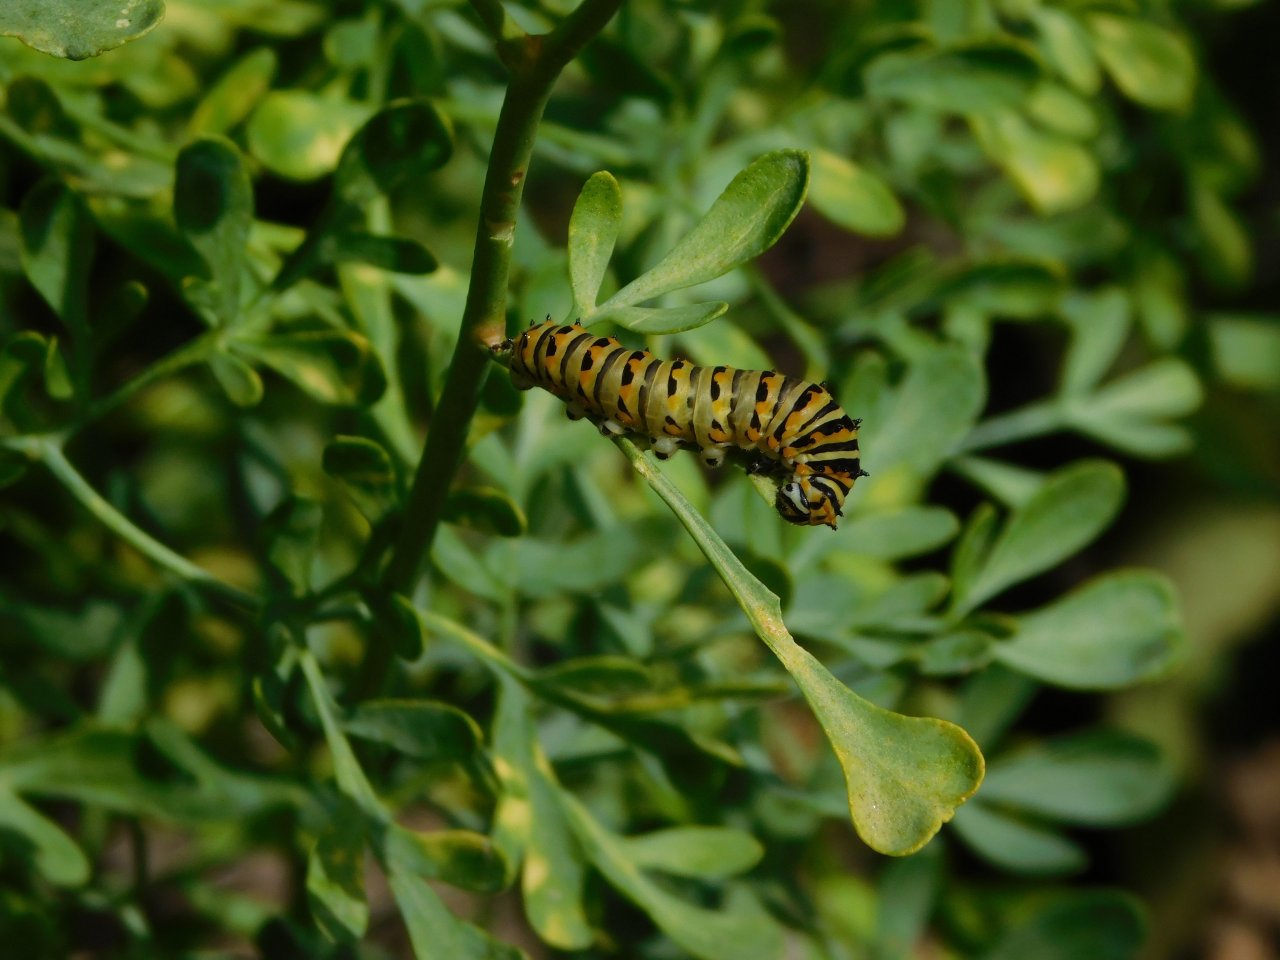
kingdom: Animalia
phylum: Arthropoda
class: Insecta
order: Lepidoptera
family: Papilionidae
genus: Papilio
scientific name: Papilio polyxenes
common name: Black Swallowtail
